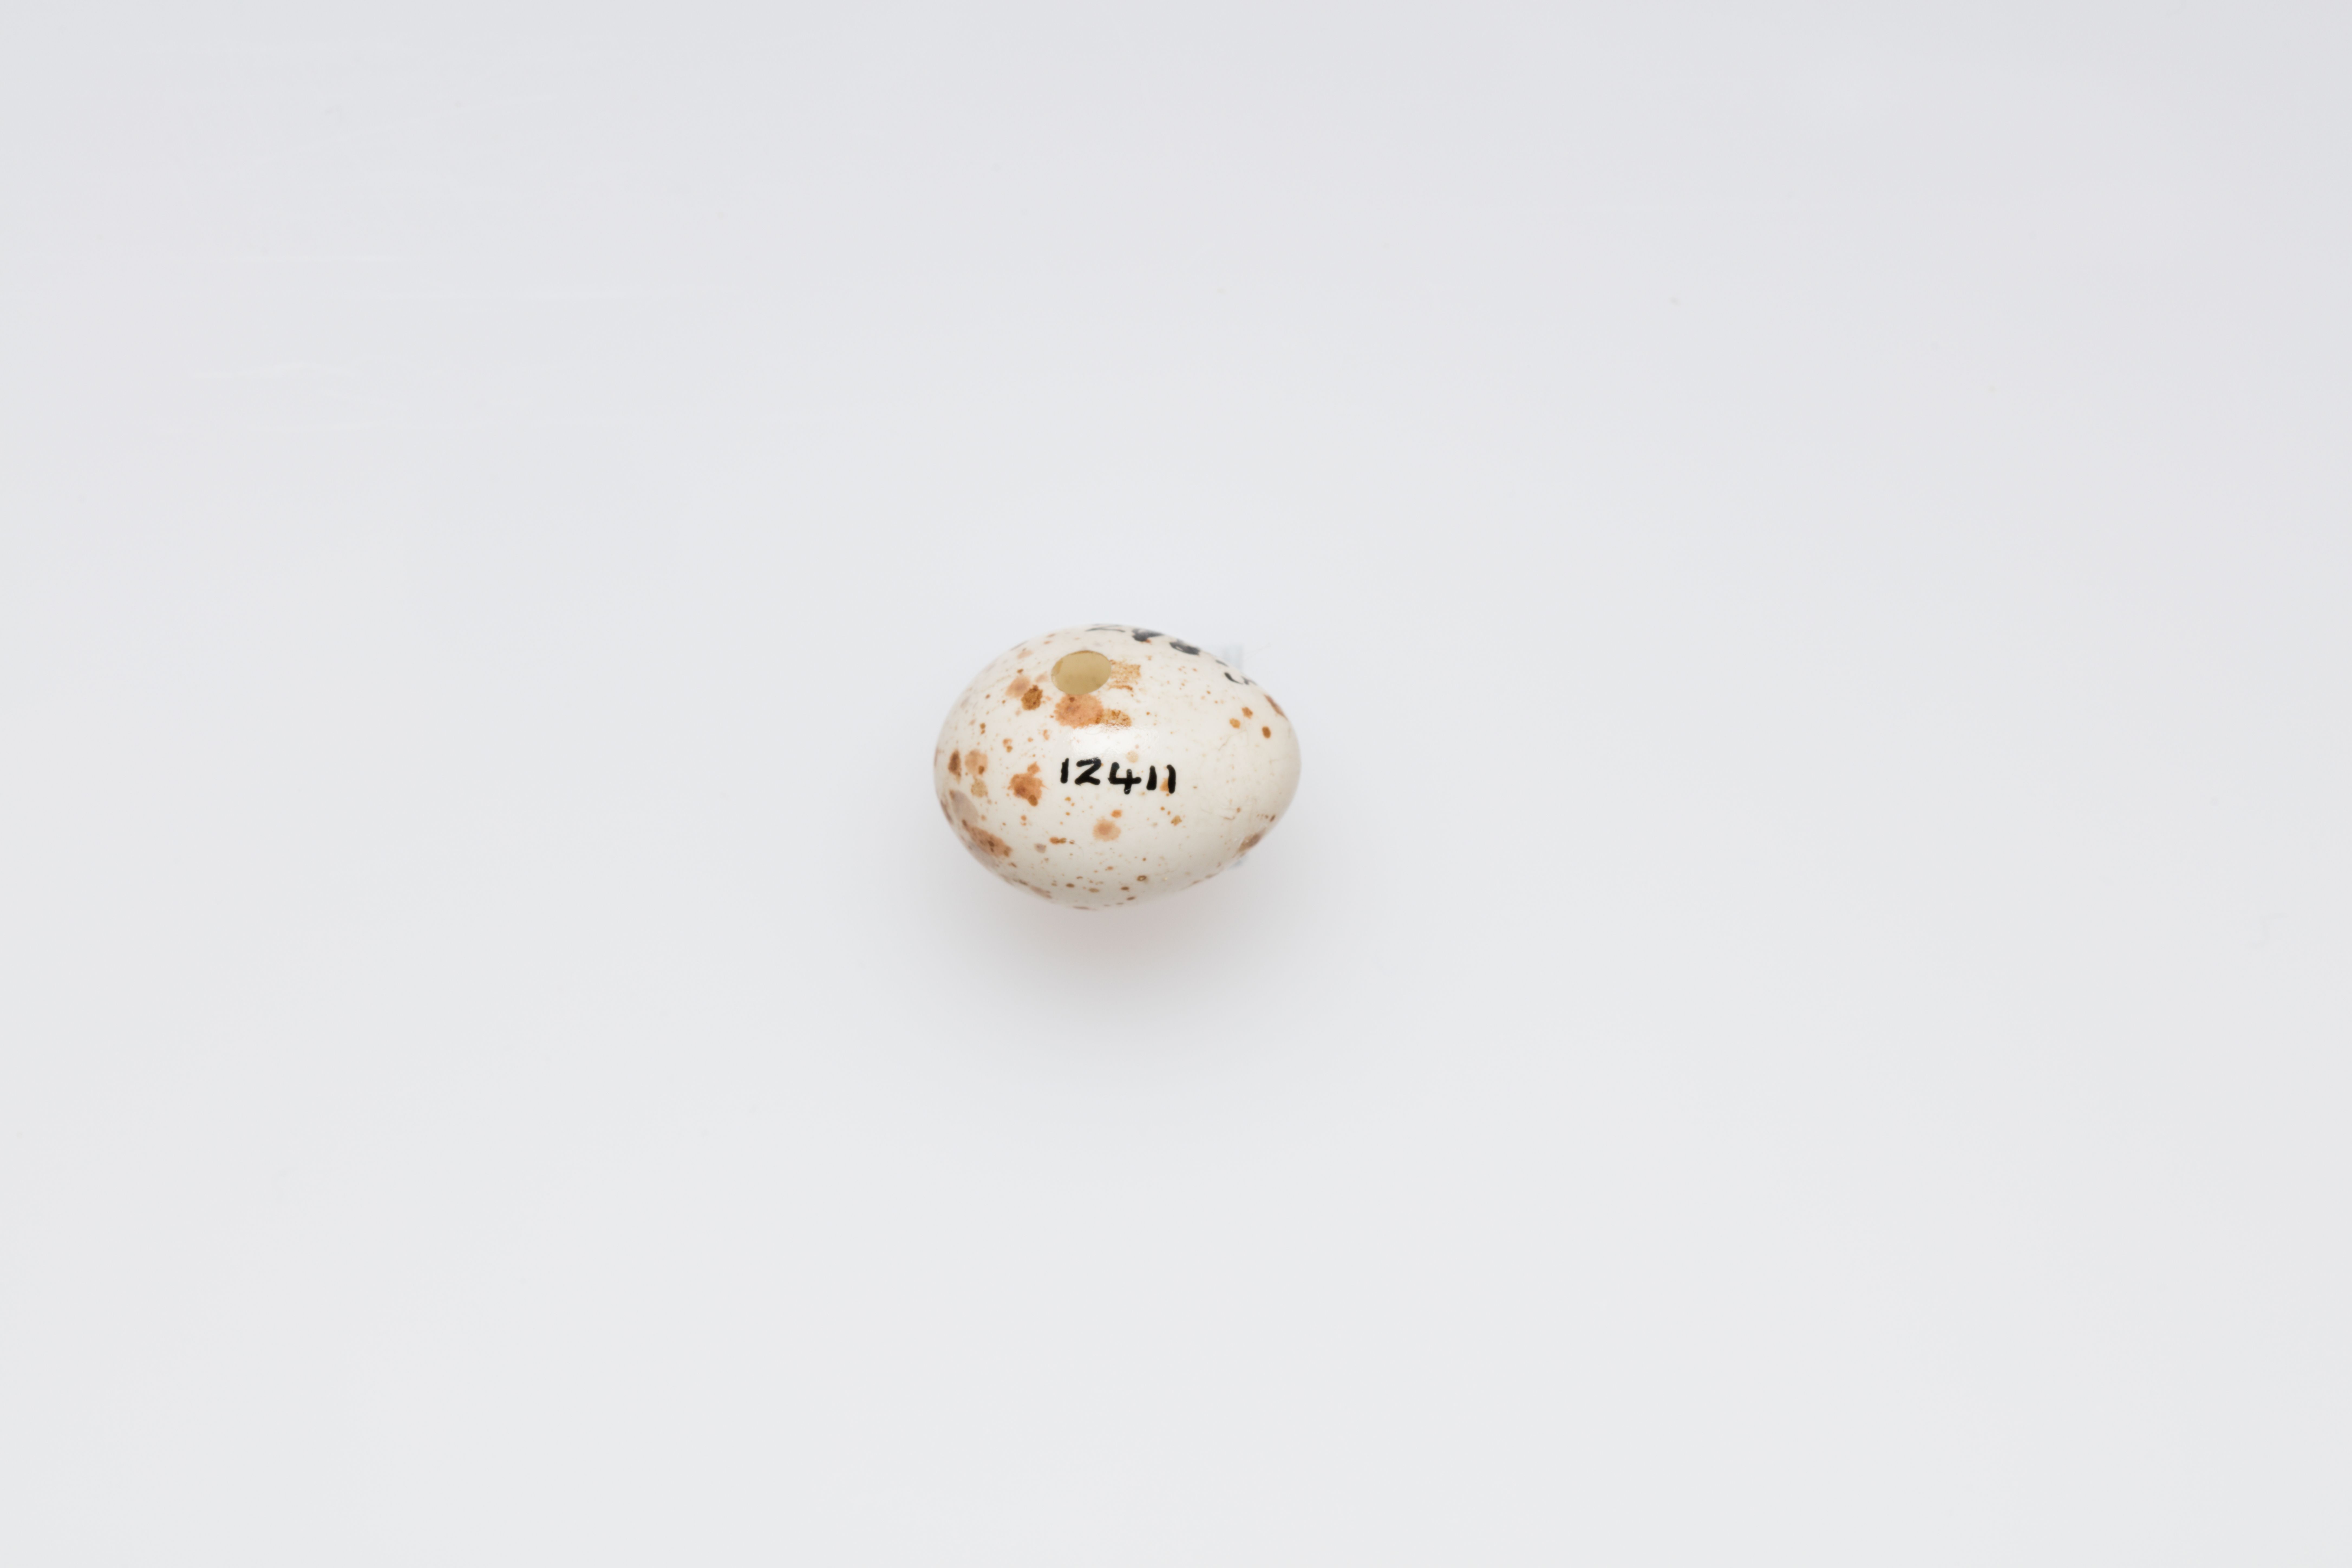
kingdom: Animalia
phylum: Chordata
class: Aves
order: Passeriformes
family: Certhiidae
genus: Certhia
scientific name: Certhia familiaris
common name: Eurasian treecreeper
